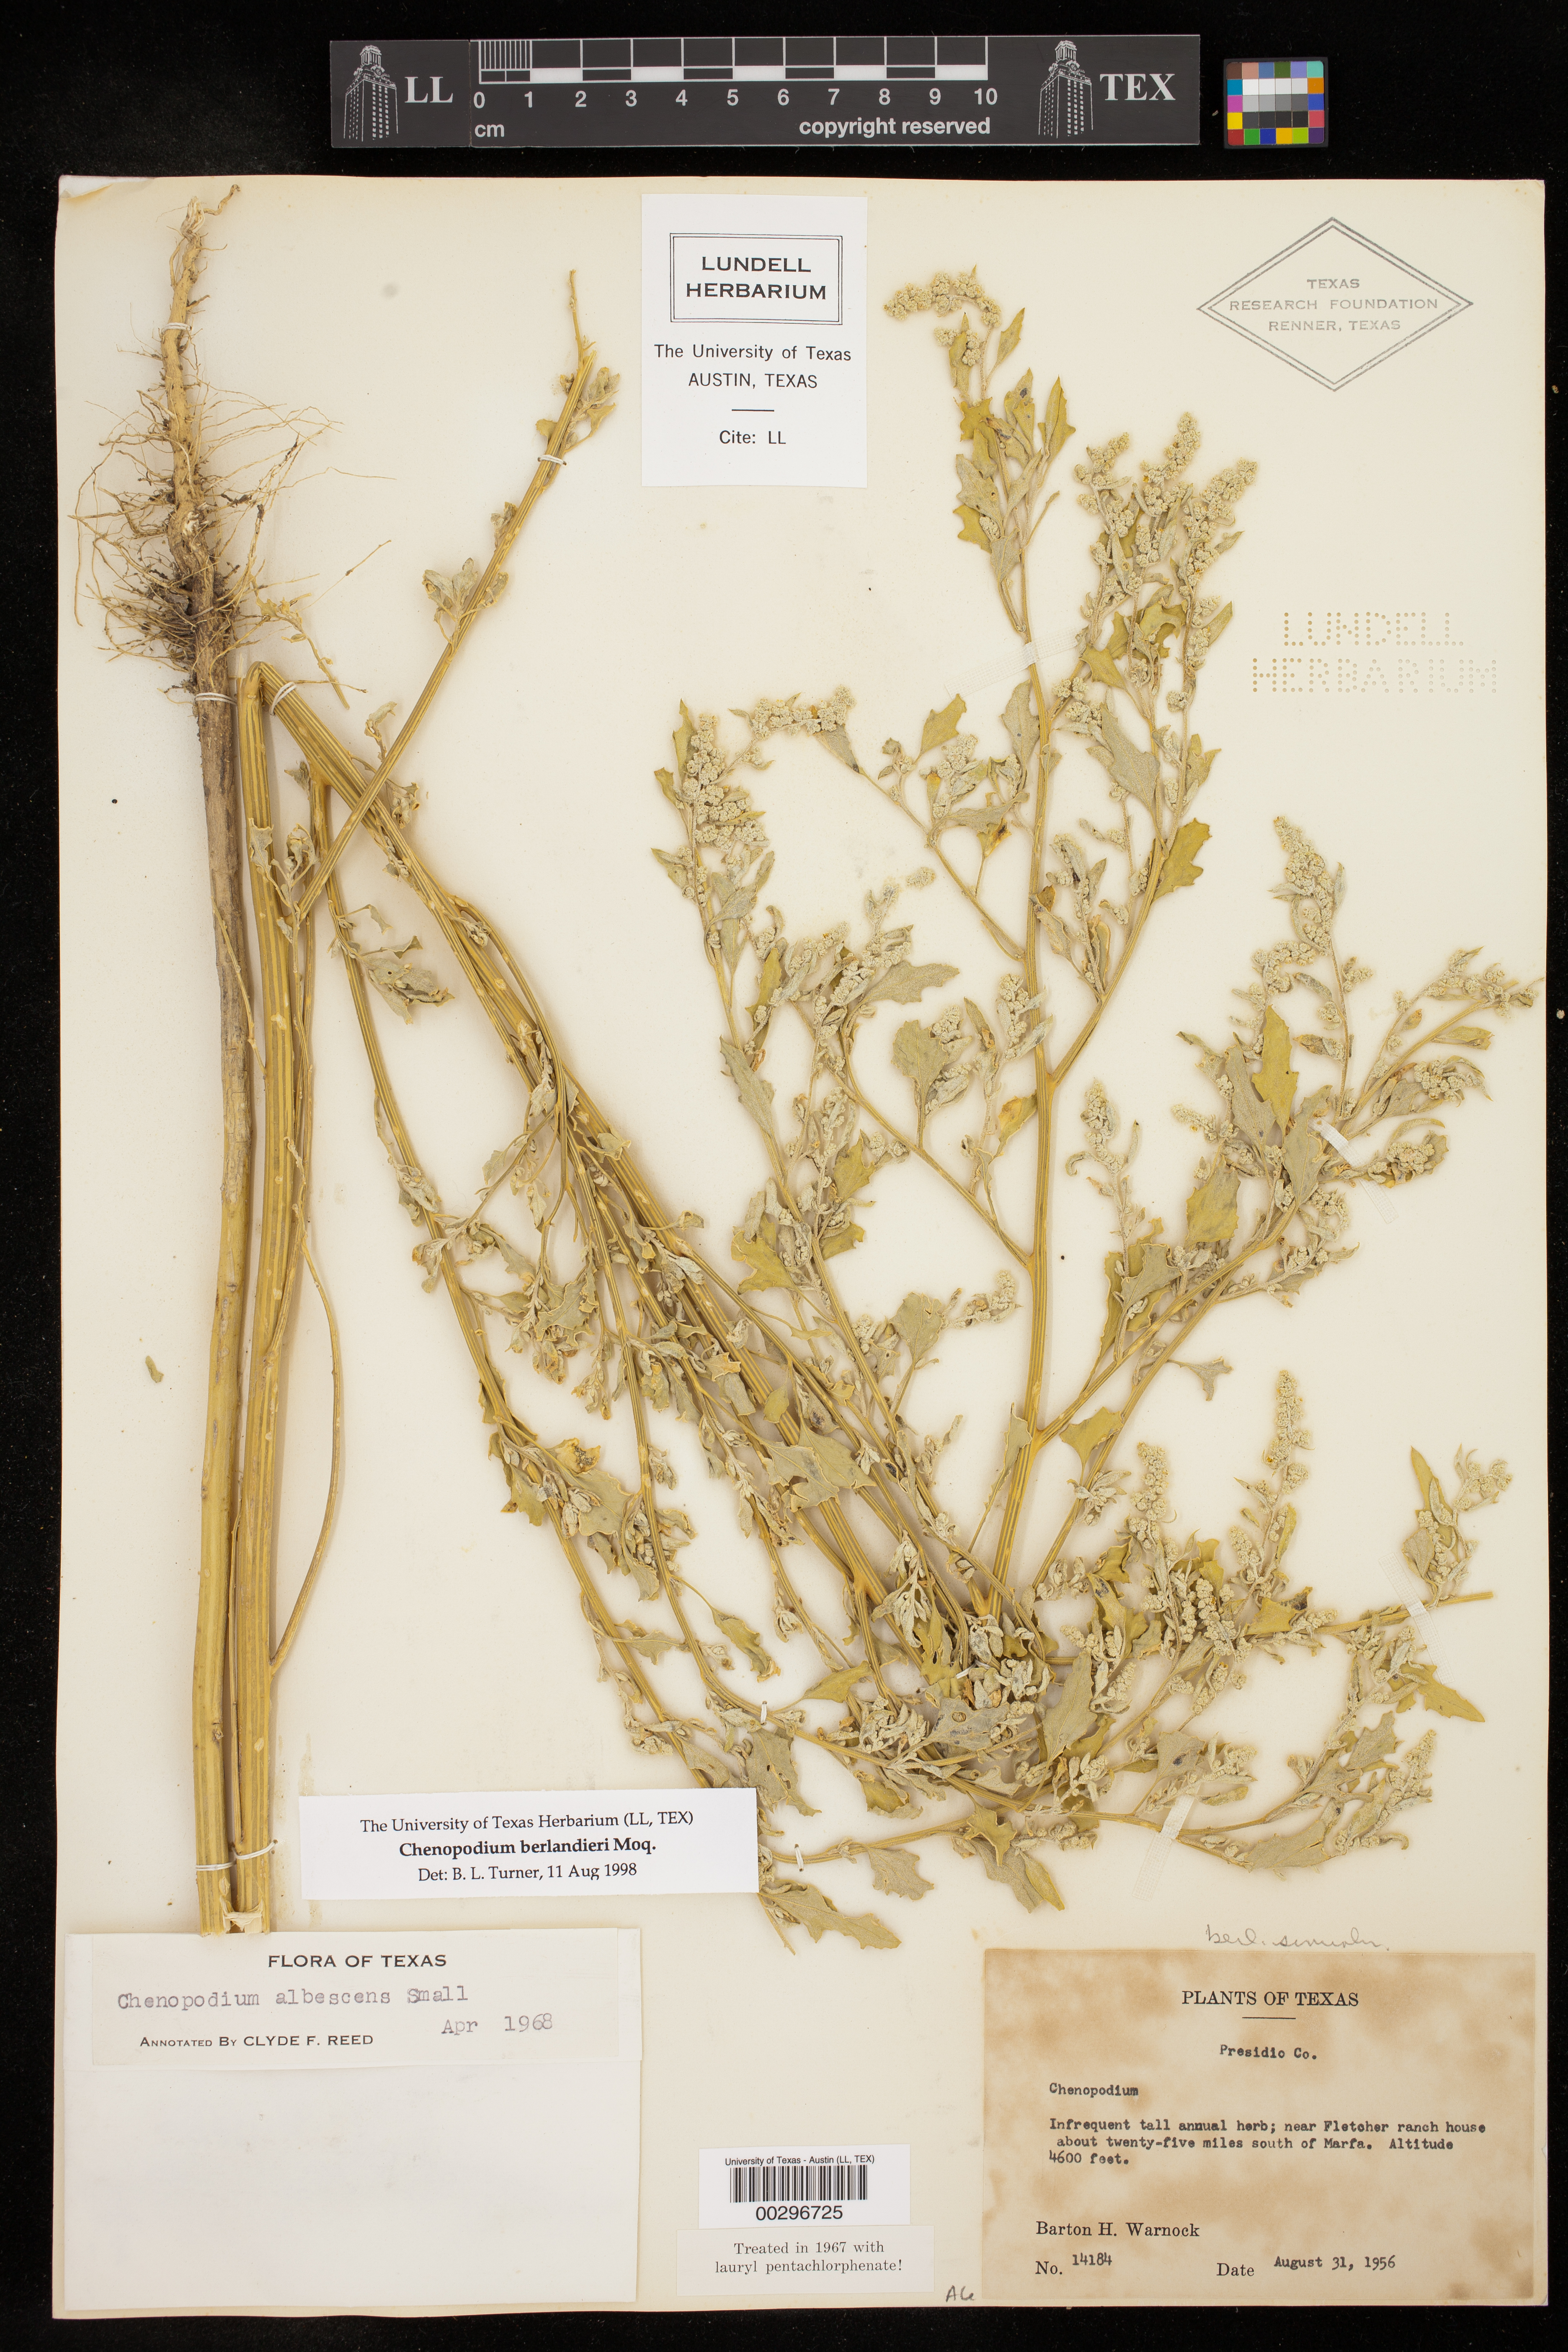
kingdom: Plantae
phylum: Tracheophyta
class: Magnoliopsida
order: Caryophyllales
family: Amaranthaceae
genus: Chenopodium
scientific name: Chenopodium berlandieri
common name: Pit-seed goosefoot
